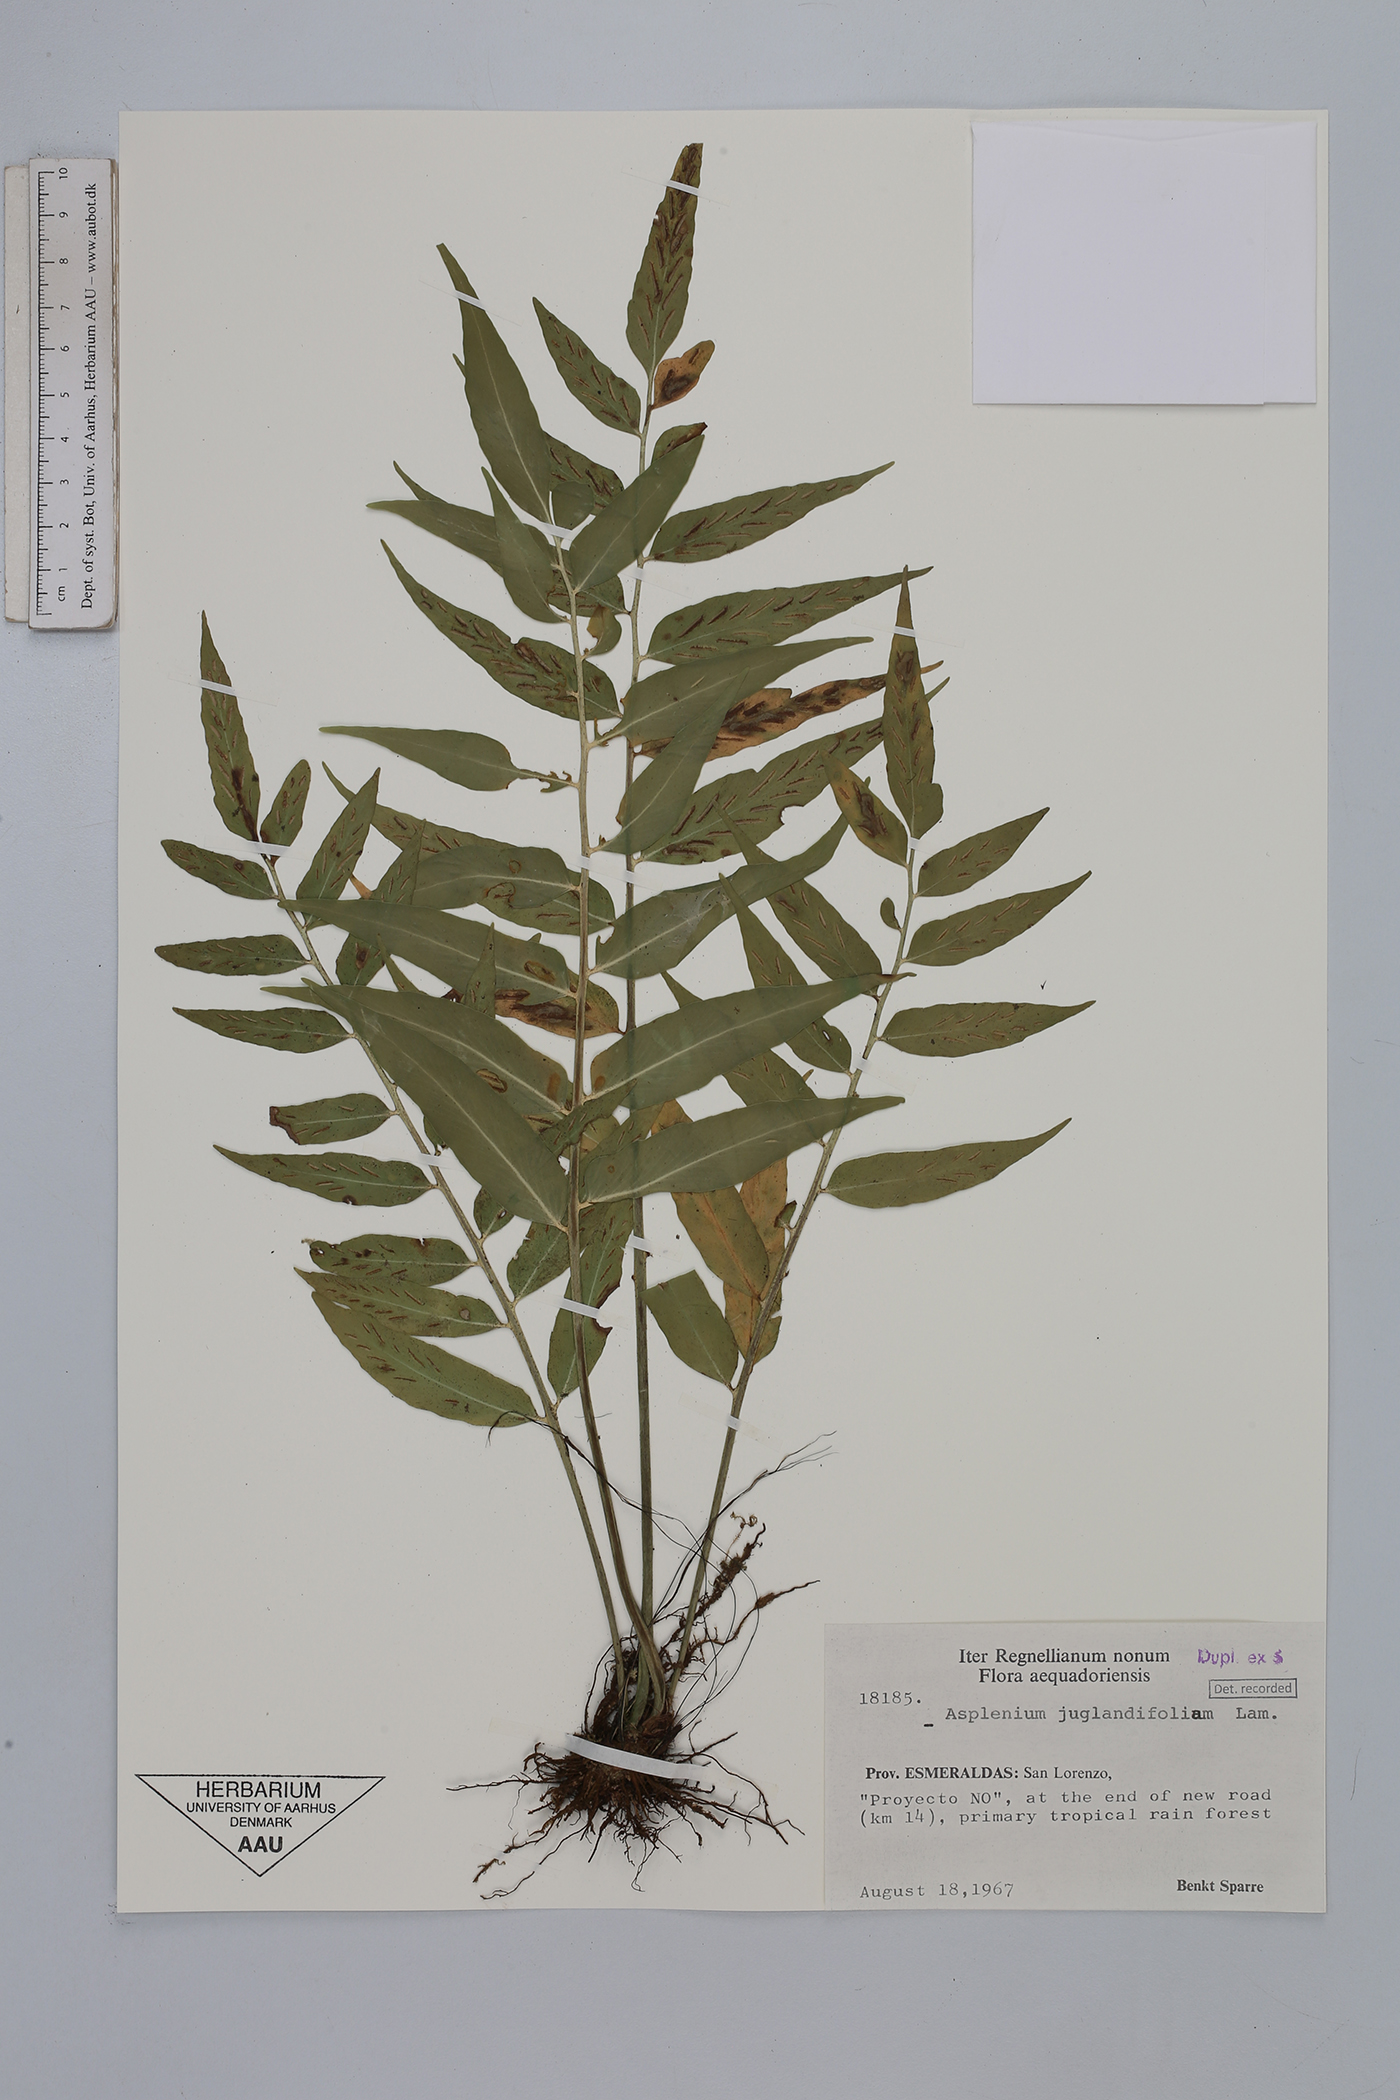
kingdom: Plantae
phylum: Tracheophyta
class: Polypodiopsida
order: Polypodiales
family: Aspleniaceae
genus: Asplenium
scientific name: Asplenium juglandifolium
